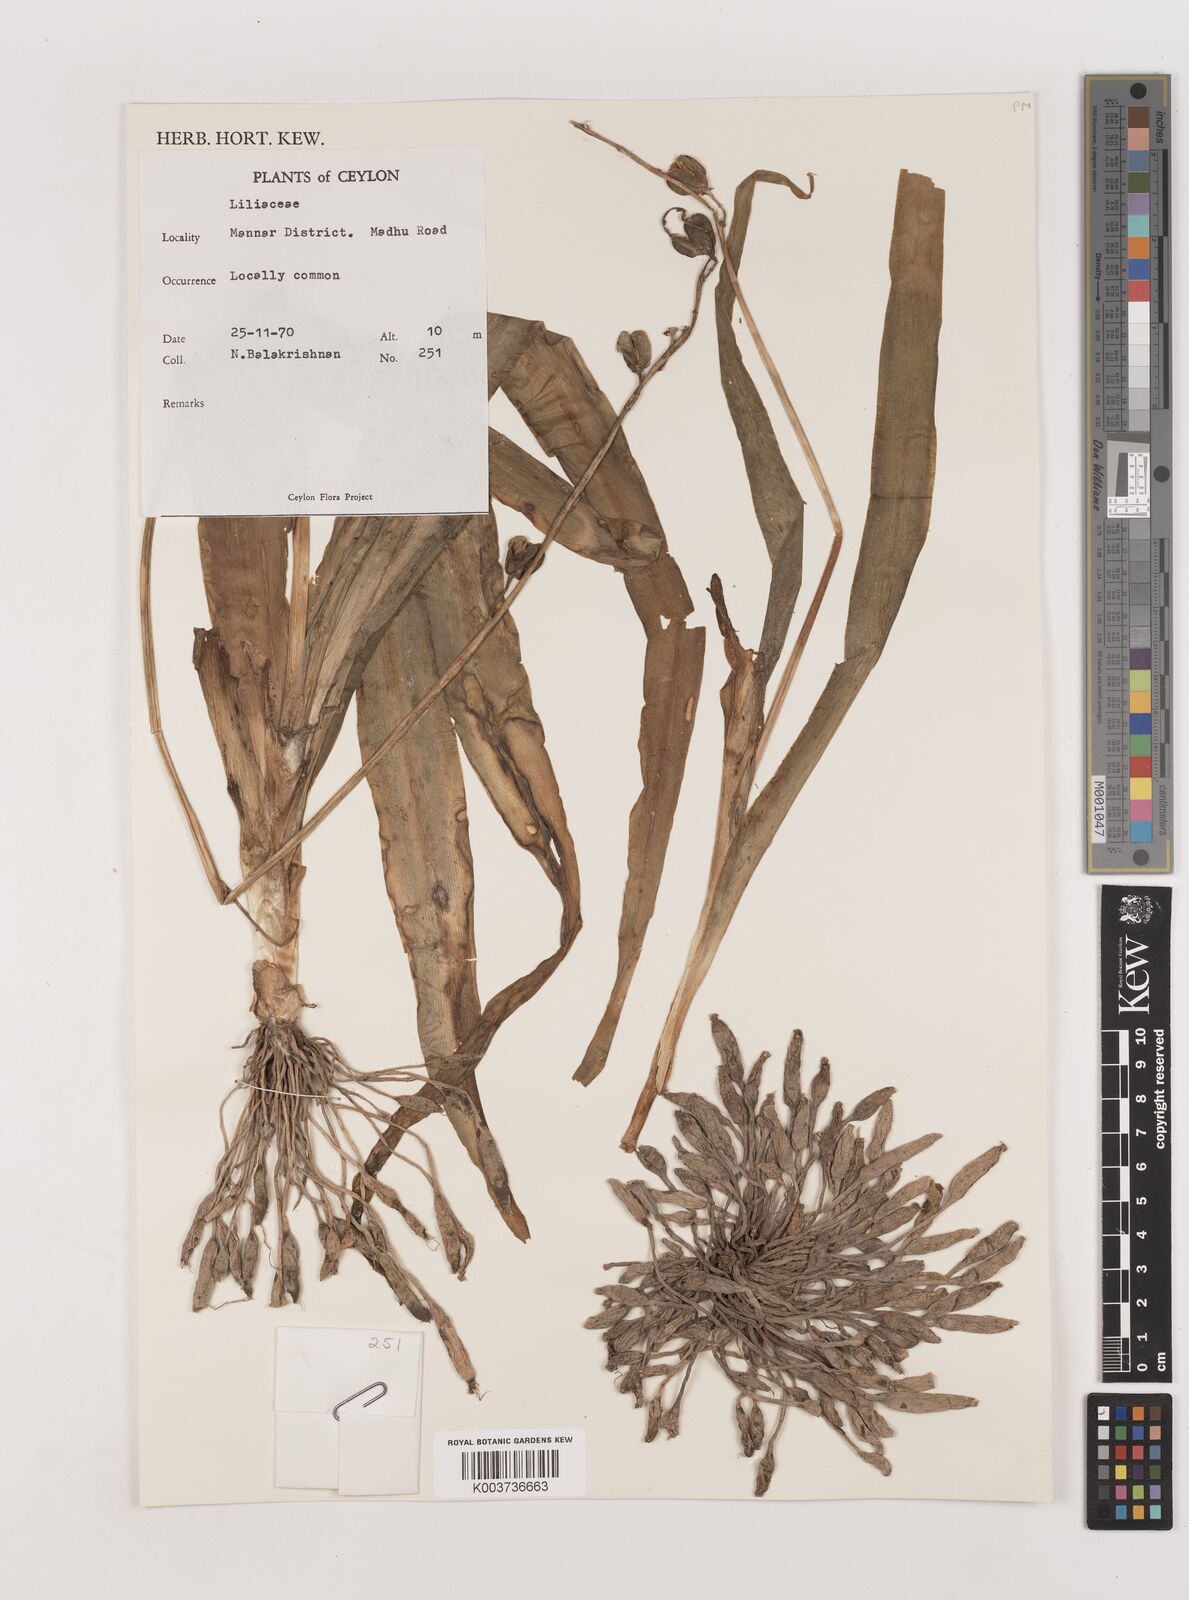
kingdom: Plantae
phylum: Tracheophyta
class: Liliopsida
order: Asparagales
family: Asparagaceae
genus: Chlorophytum
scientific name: Chlorophytum
